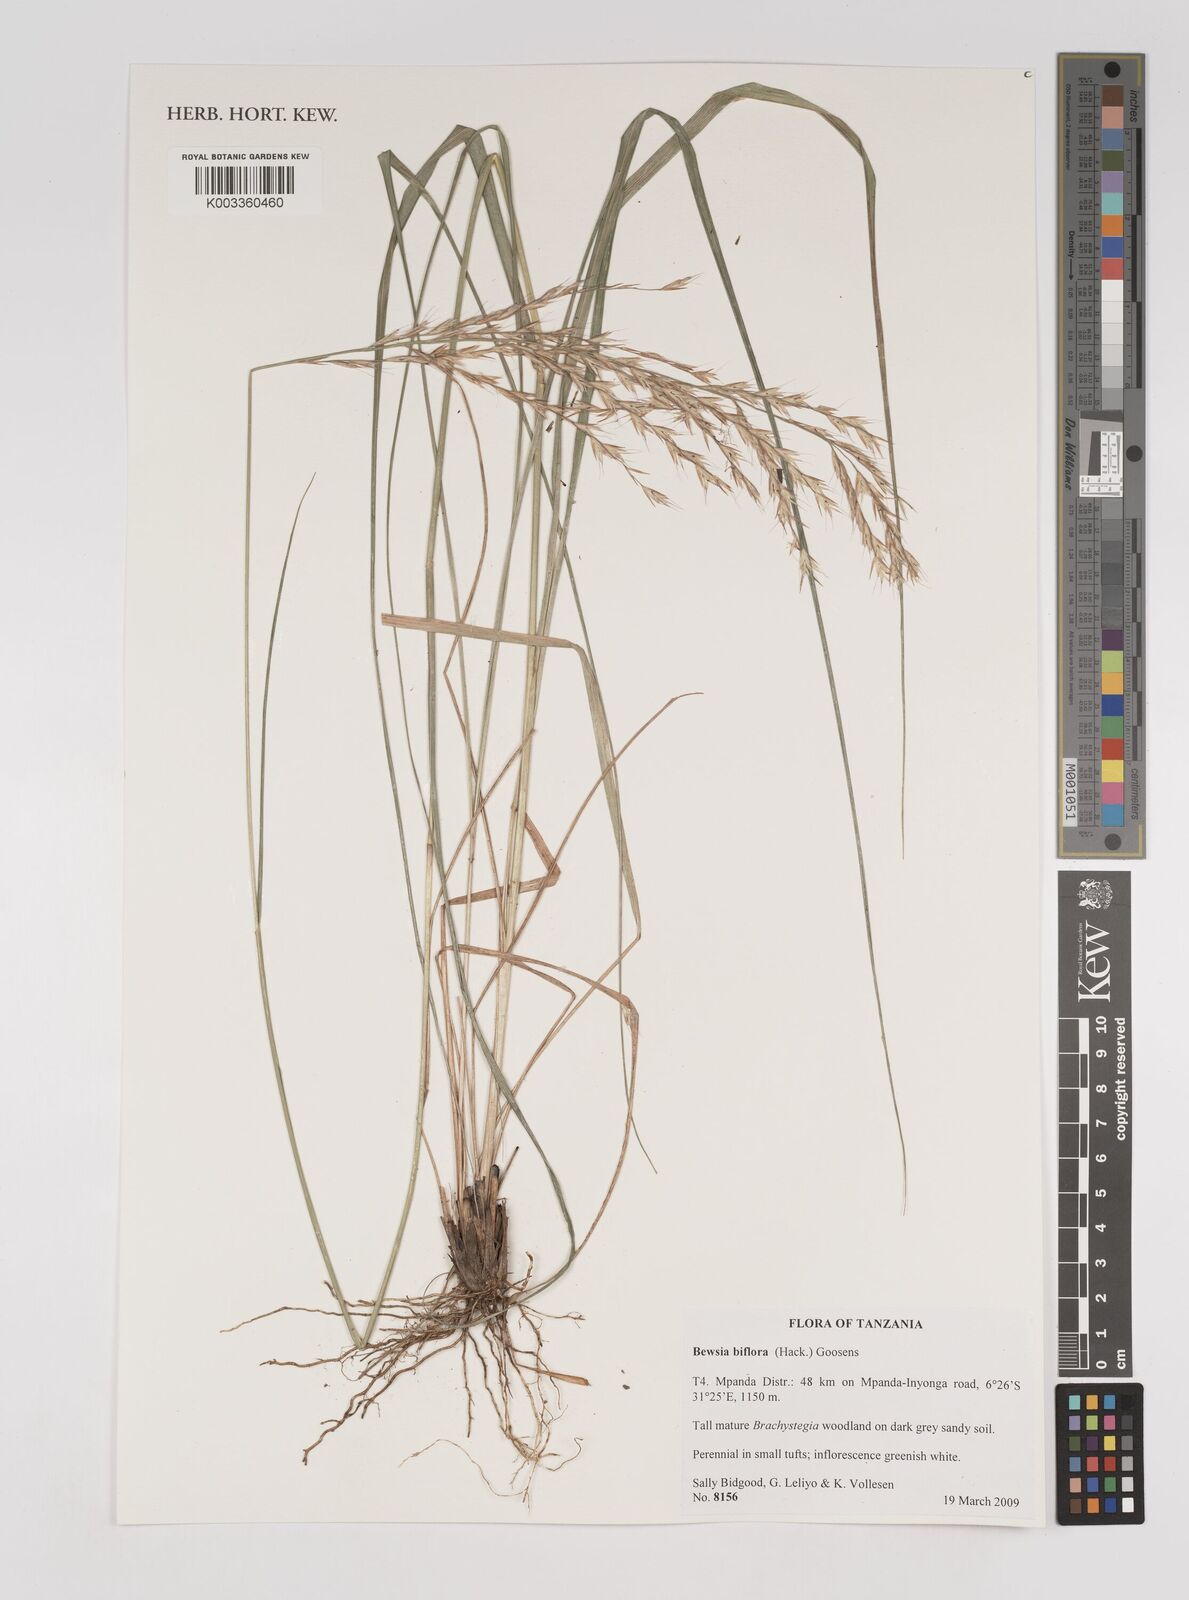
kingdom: Plantae
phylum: Tracheophyta
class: Liliopsida
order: Poales
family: Poaceae
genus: Bewsia
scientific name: Bewsia biflora
